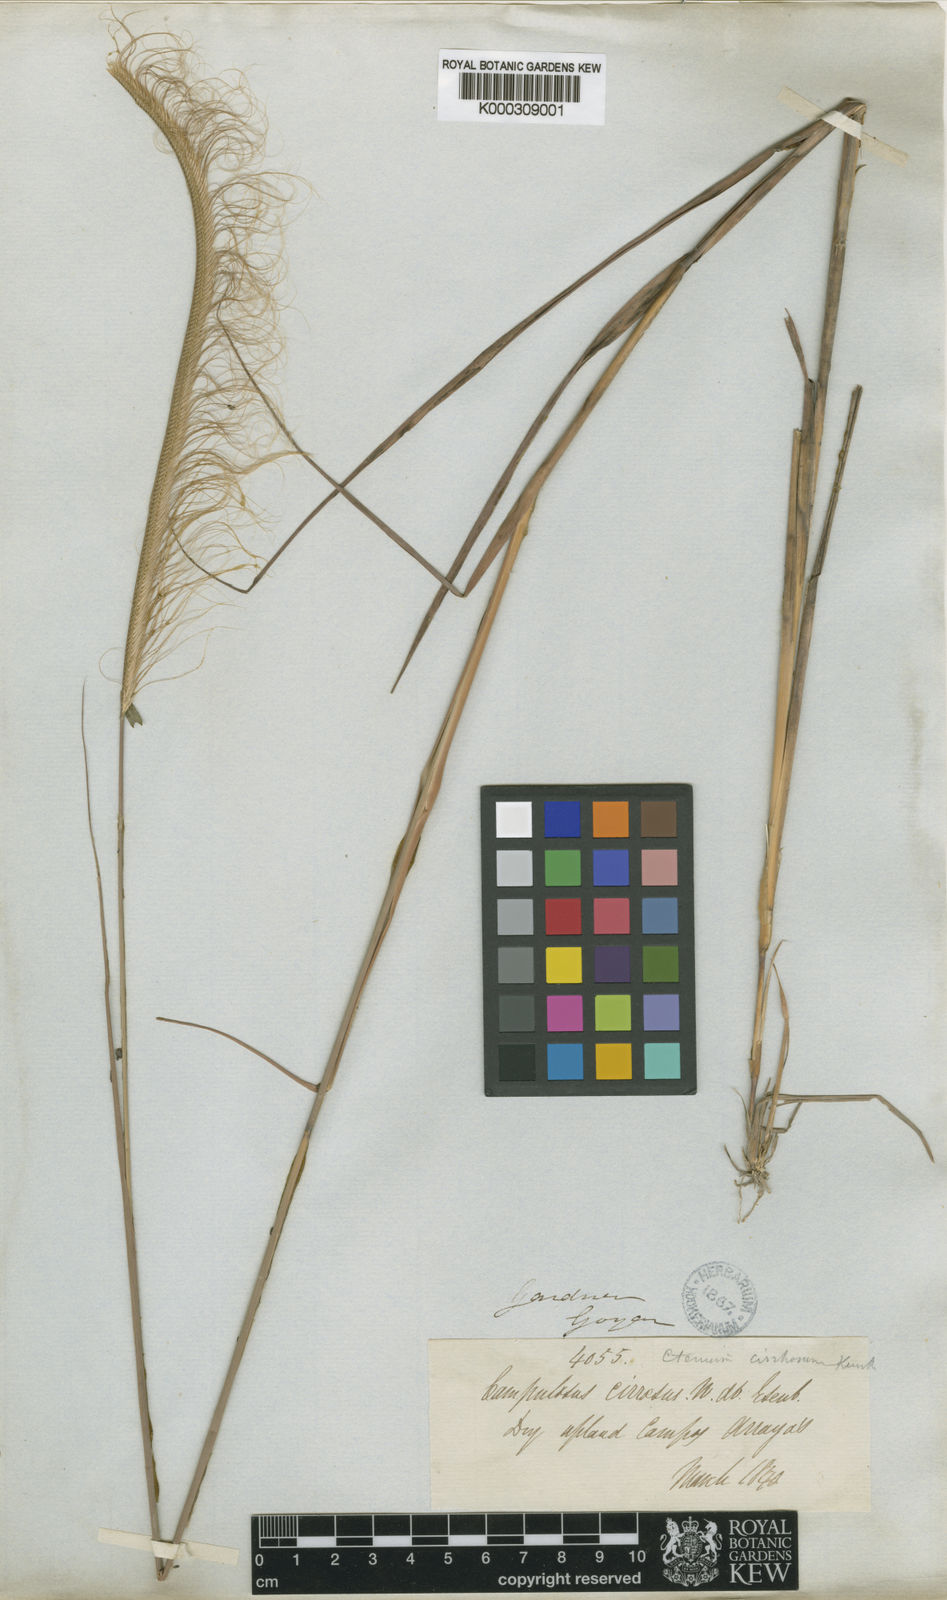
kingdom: Plantae
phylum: Tracheophyta
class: Liliopsida
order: Poales
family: Poaceae
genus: Ctenium
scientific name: Ctenium cirrhosum
